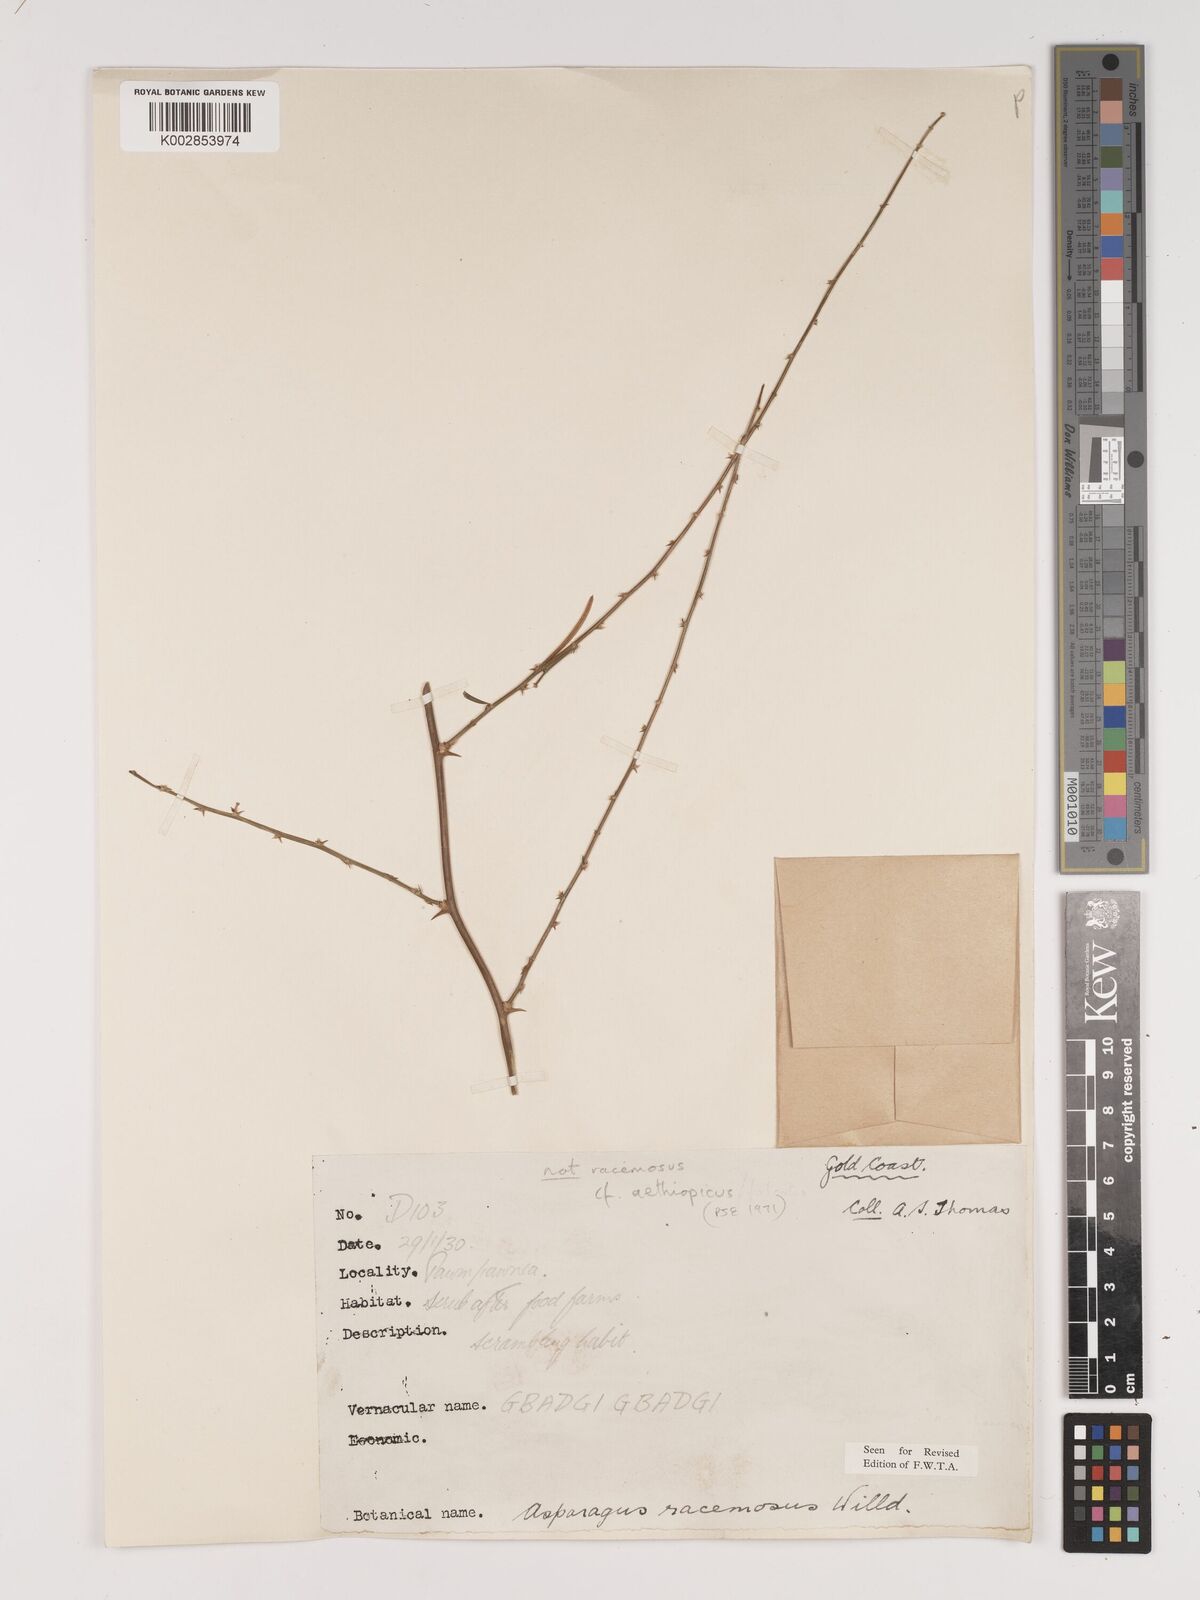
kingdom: Plantae
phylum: Tracheophyta
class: Liliopsida
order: Asparagales
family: Asparagaceae
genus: Asparagus
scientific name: Asparagus aethiopicus
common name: Sprenger's asparagus fern
